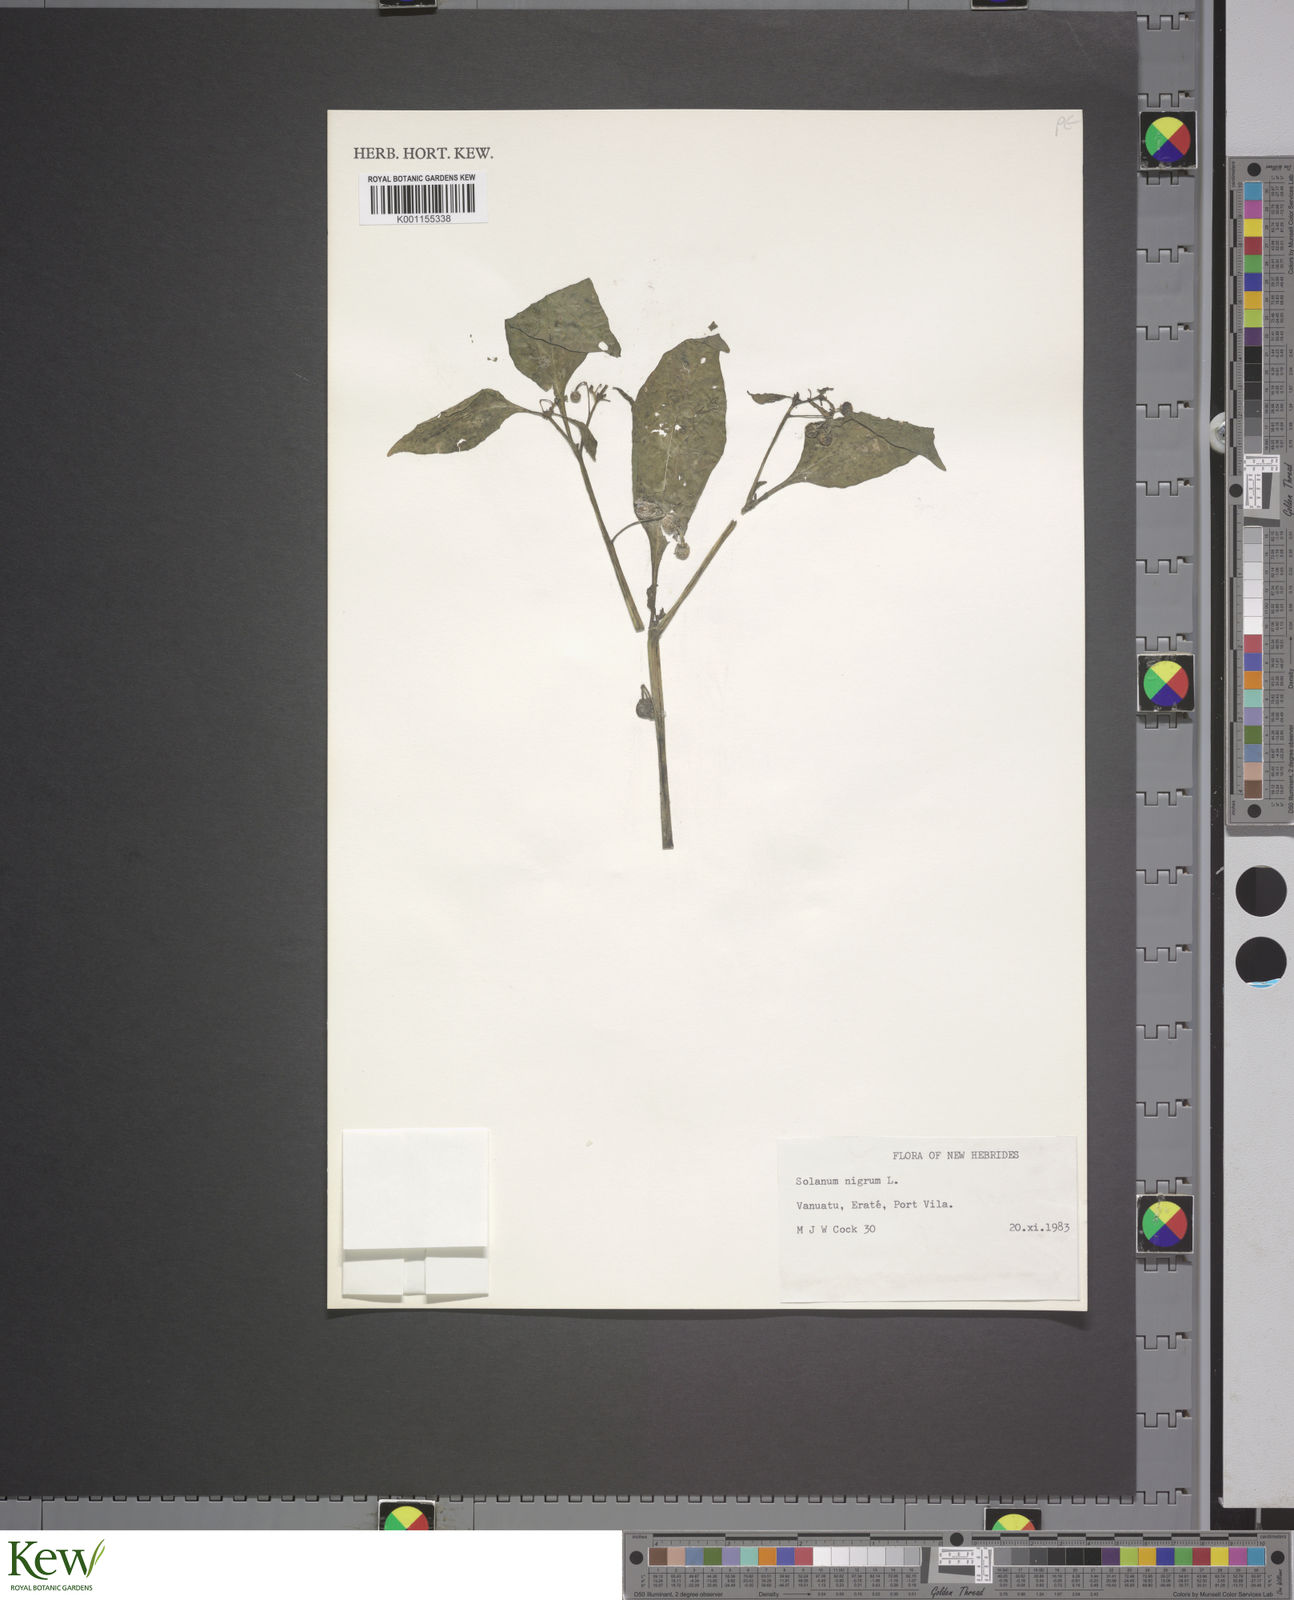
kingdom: Plantae
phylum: Tracheophyta
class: Magnoliopsida
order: Solanales
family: Solanaceae
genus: Solanum
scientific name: Solanum
